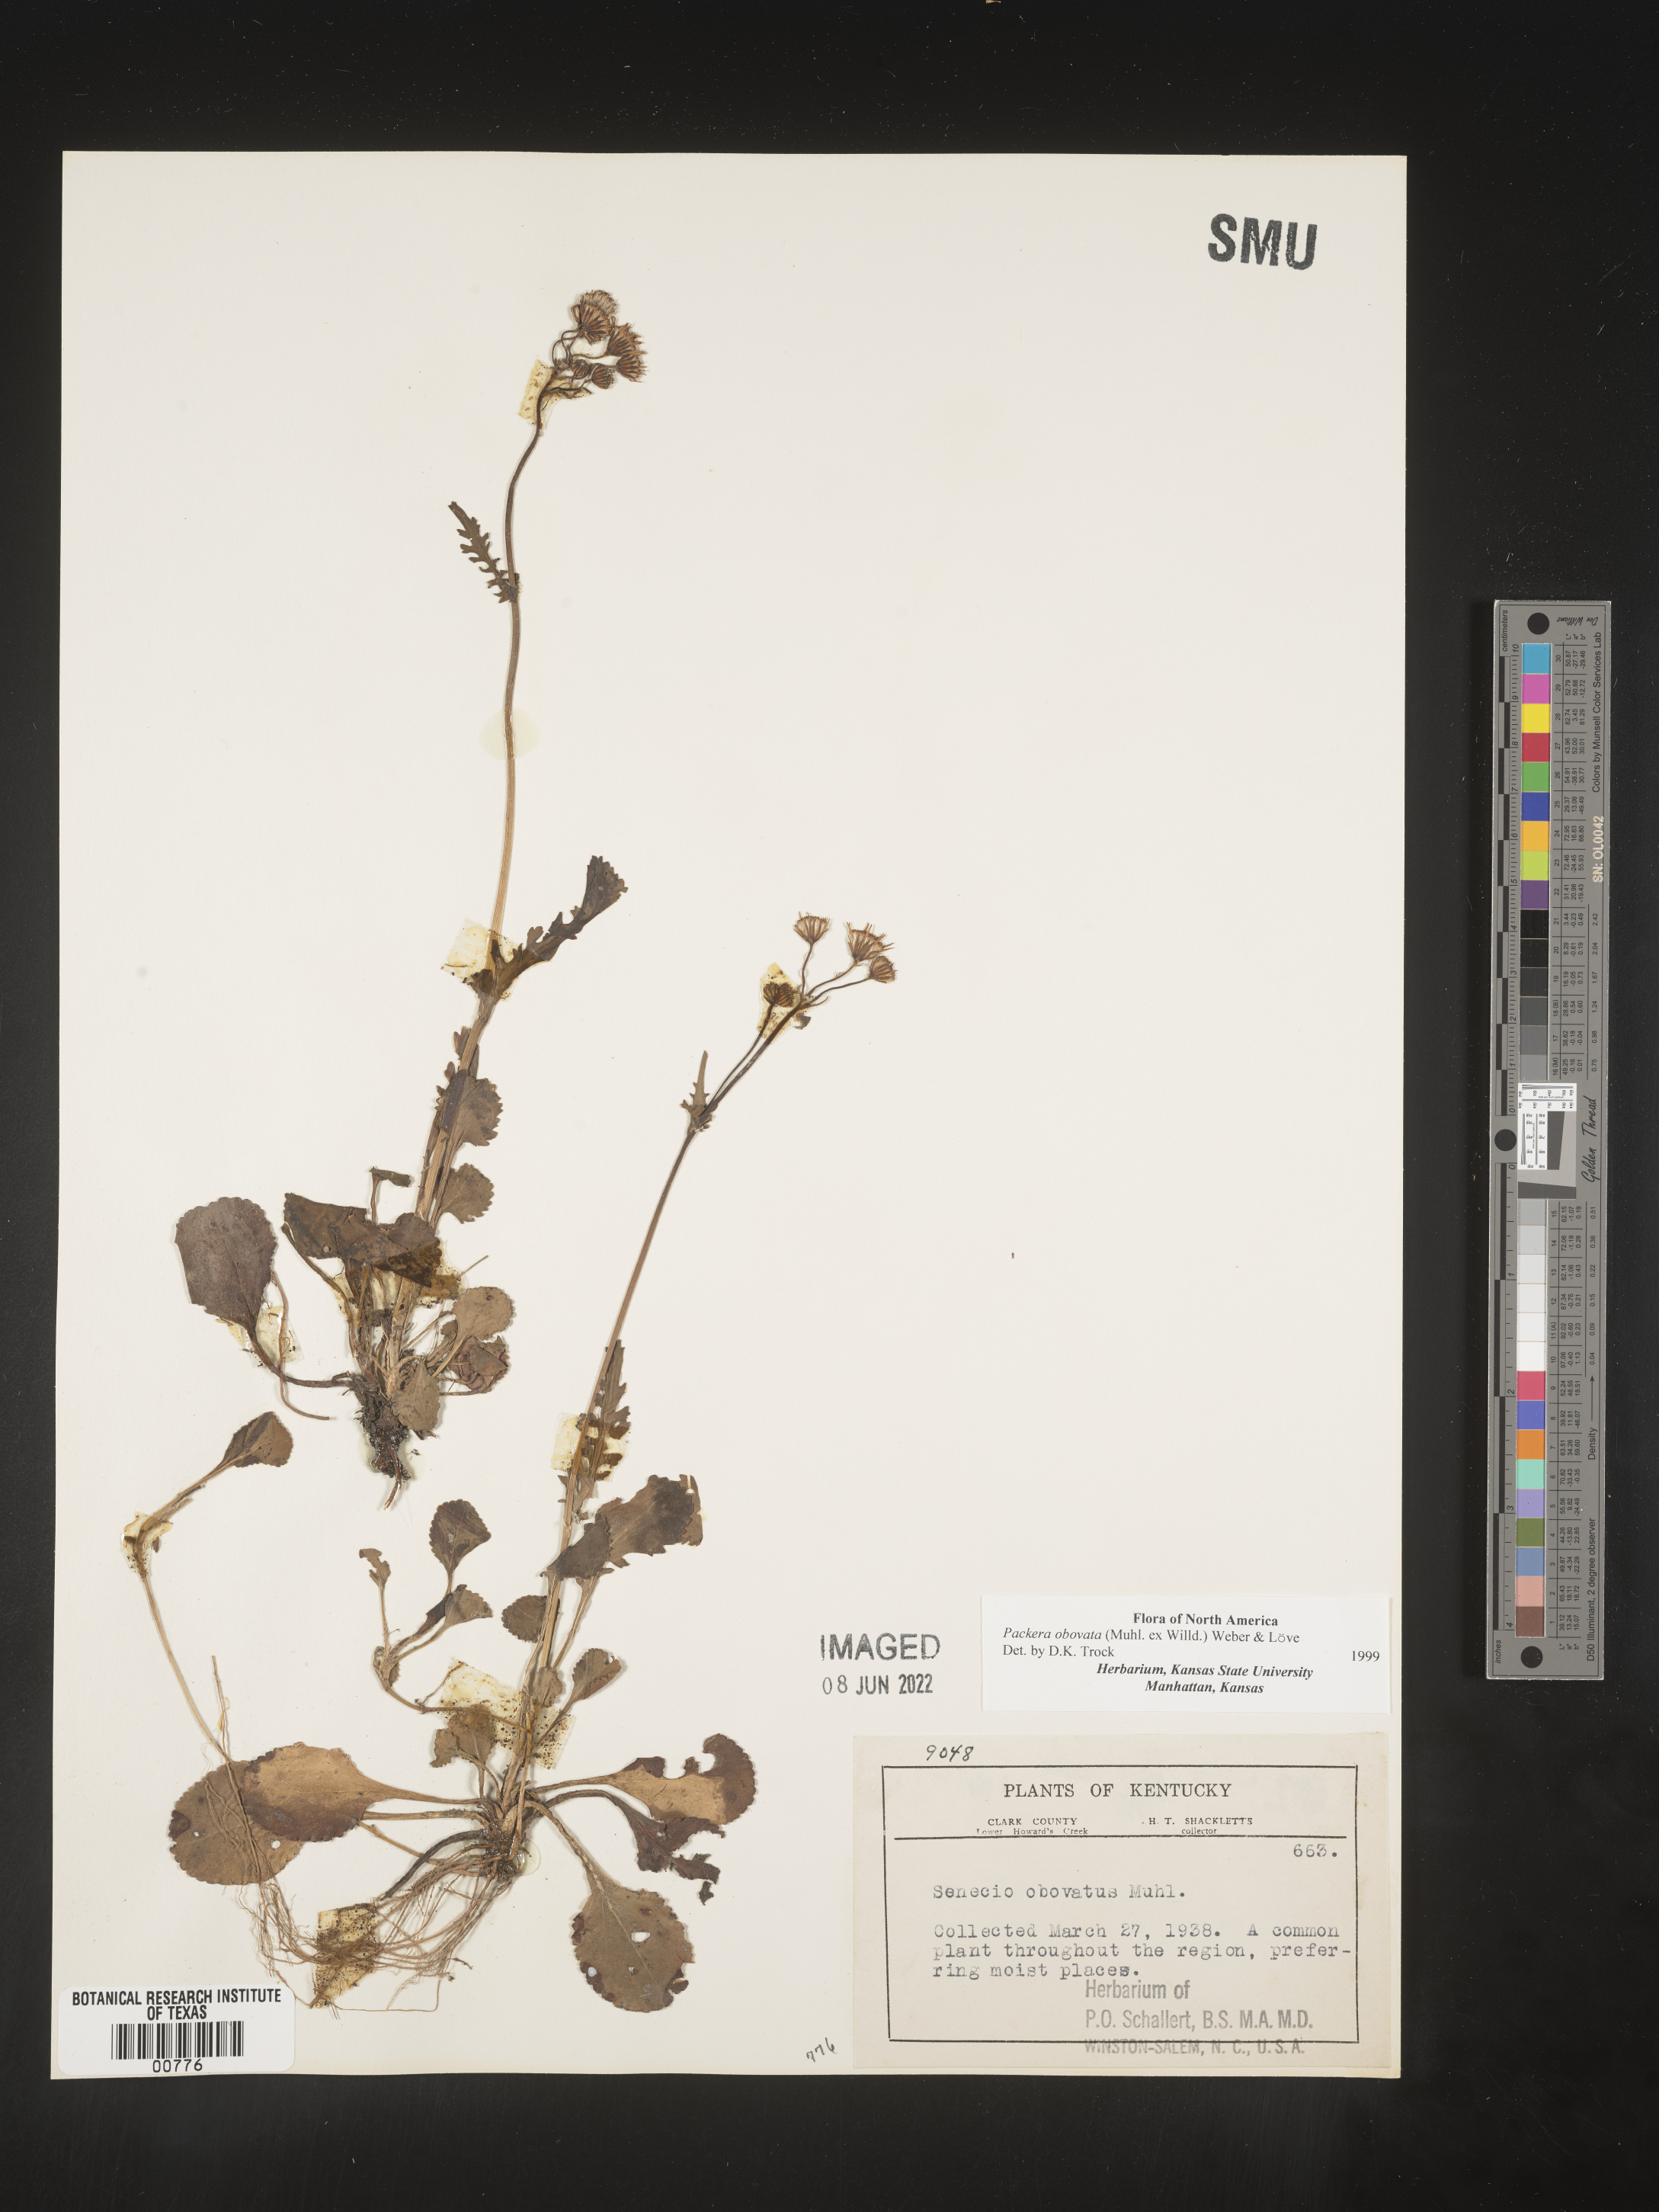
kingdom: Plantae
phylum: Tracheophyta
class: Magnoliopsida
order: Asterales
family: Asteraceae
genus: Packera
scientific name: Packera obovata
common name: Round-leaf ragwort
